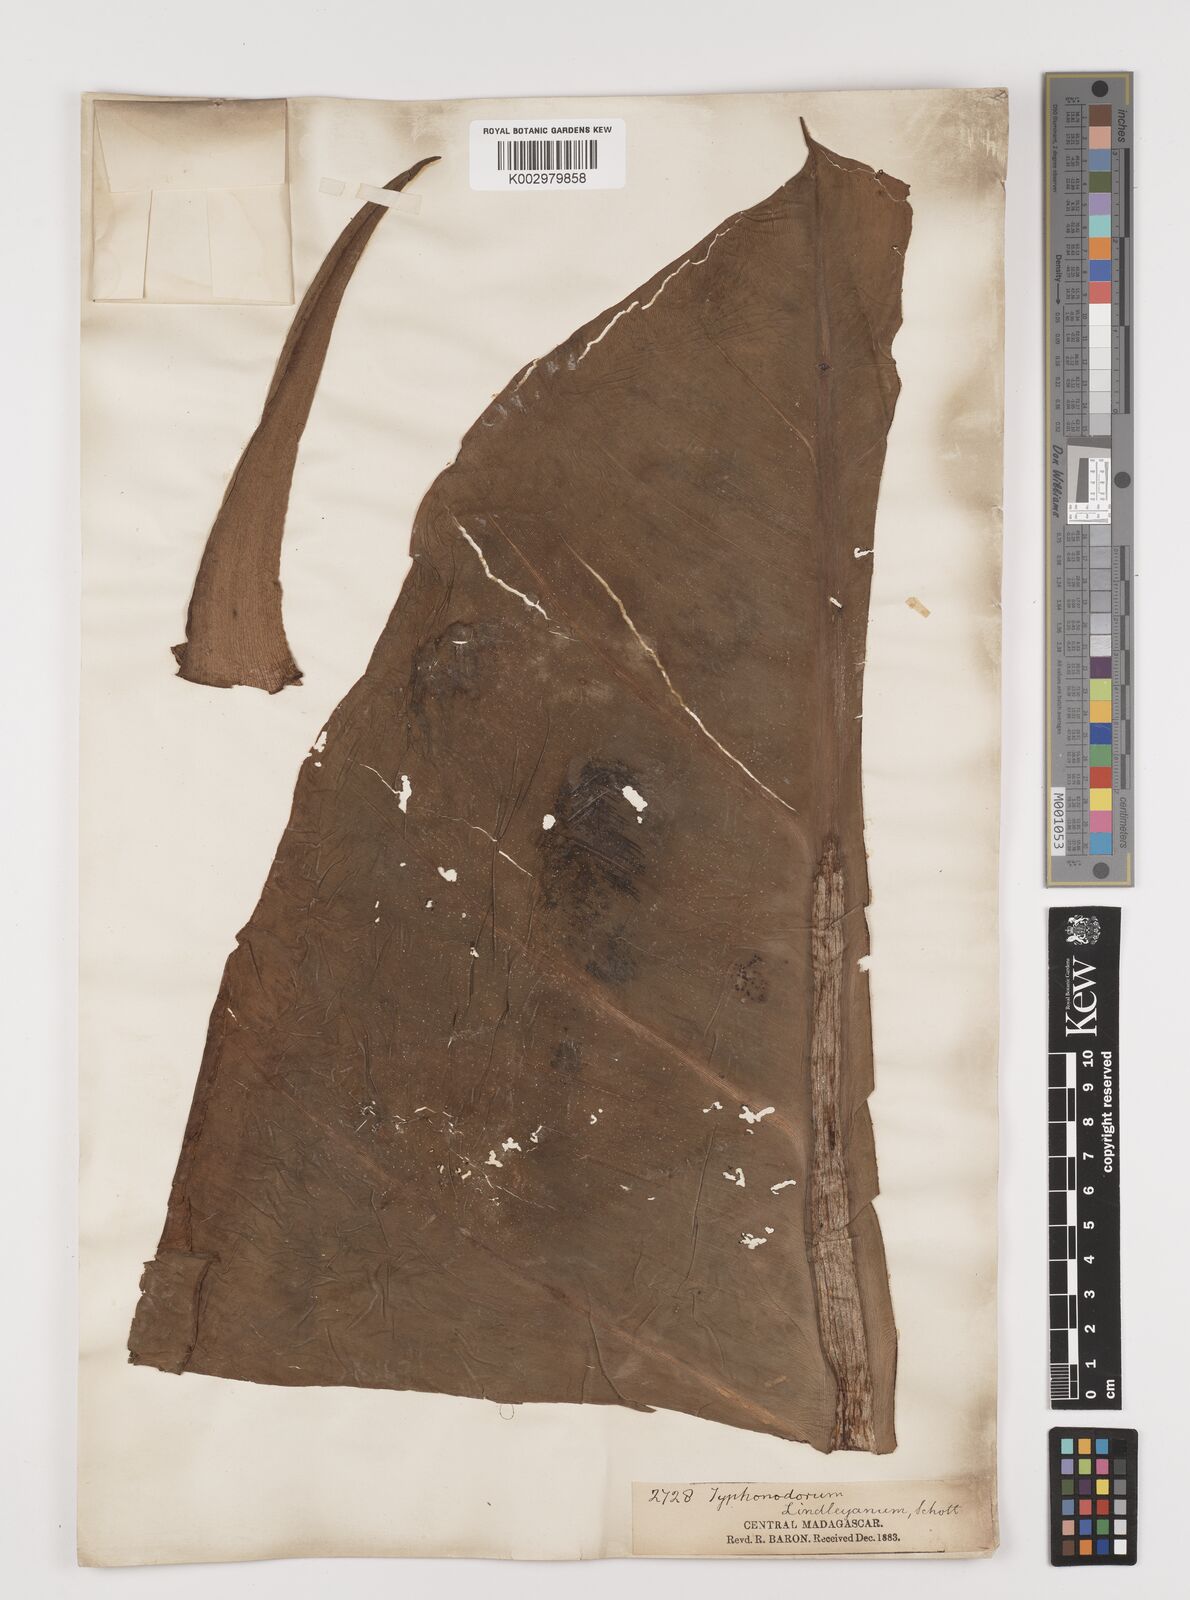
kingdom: Plantae
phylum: Tracheophyta
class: Liliopsida
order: Alismatales
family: Araceae
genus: Typhonodorum
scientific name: Typhonodorum lindleyanum
